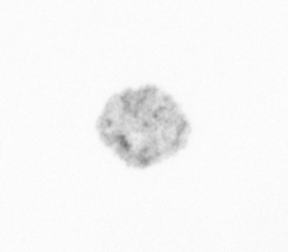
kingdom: Chromista
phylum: Ochrophyta
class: Bacillariophyceae
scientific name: Bacillariophyceae
